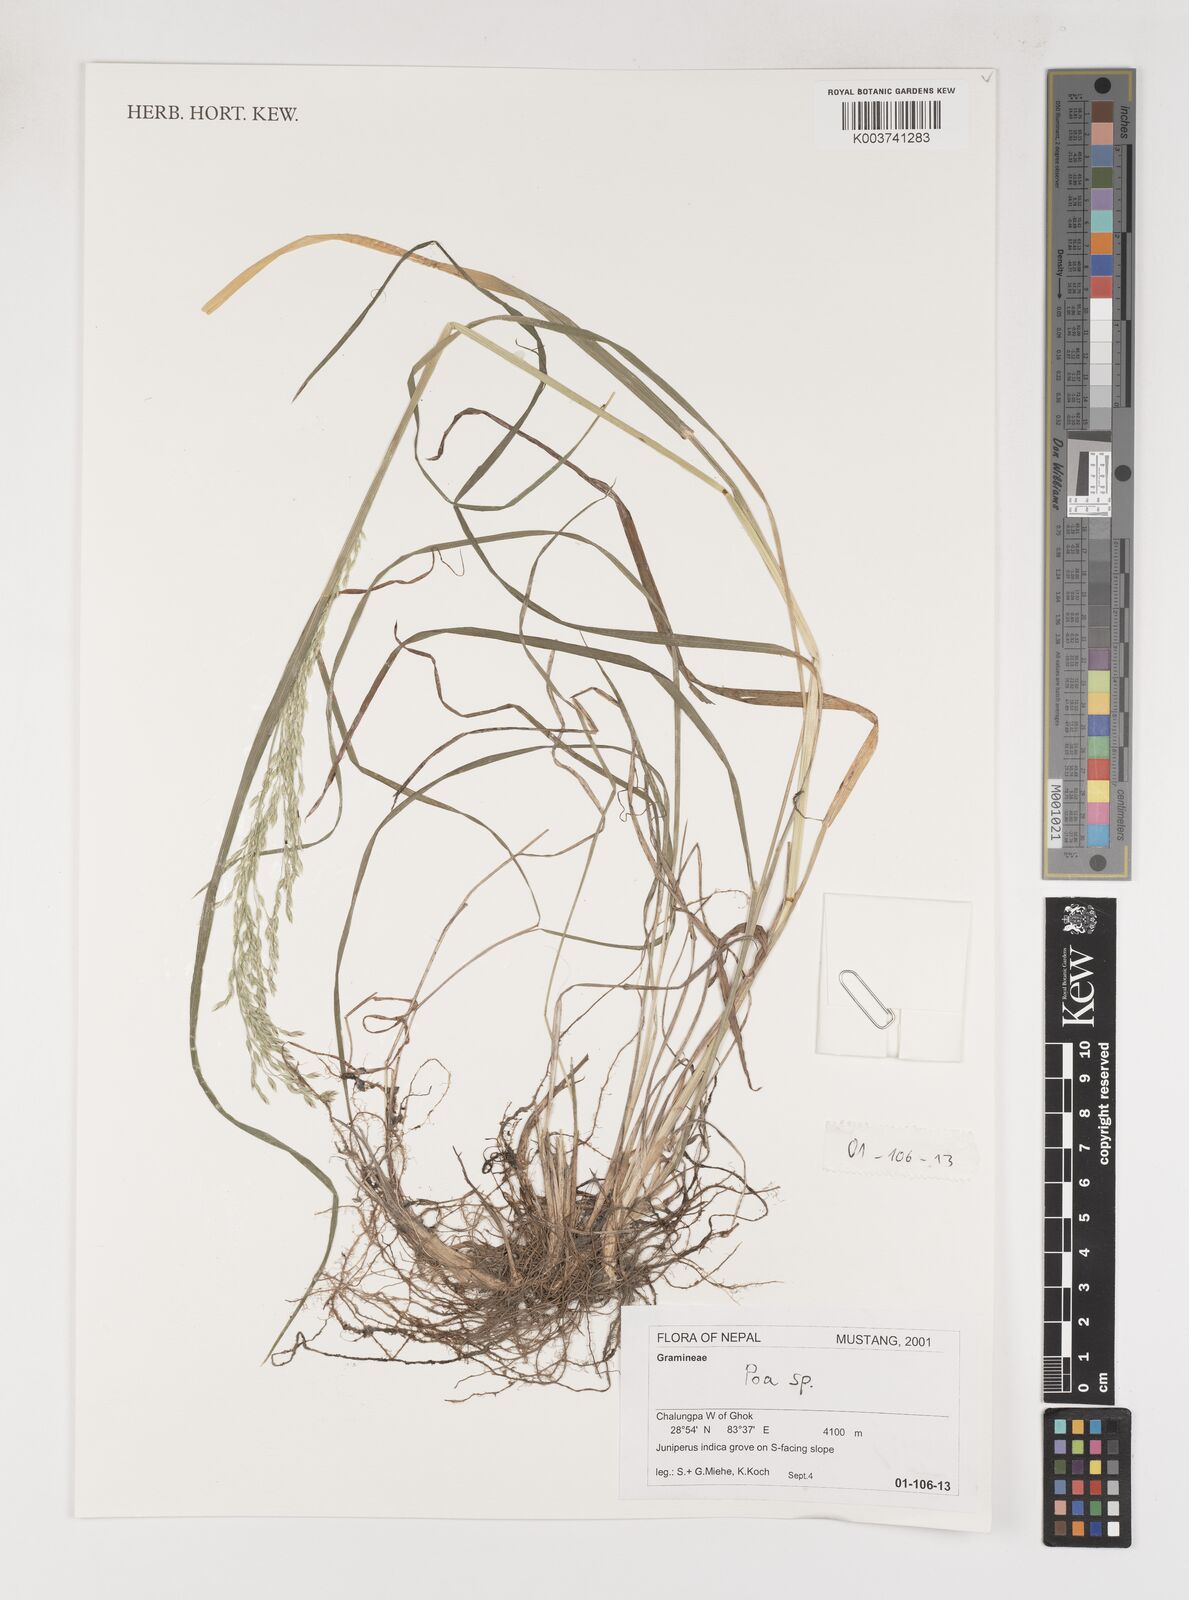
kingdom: Plantae
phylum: Tracheophyta
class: Liliopsida
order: Poales
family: Poaceae
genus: Poa
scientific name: Poa
